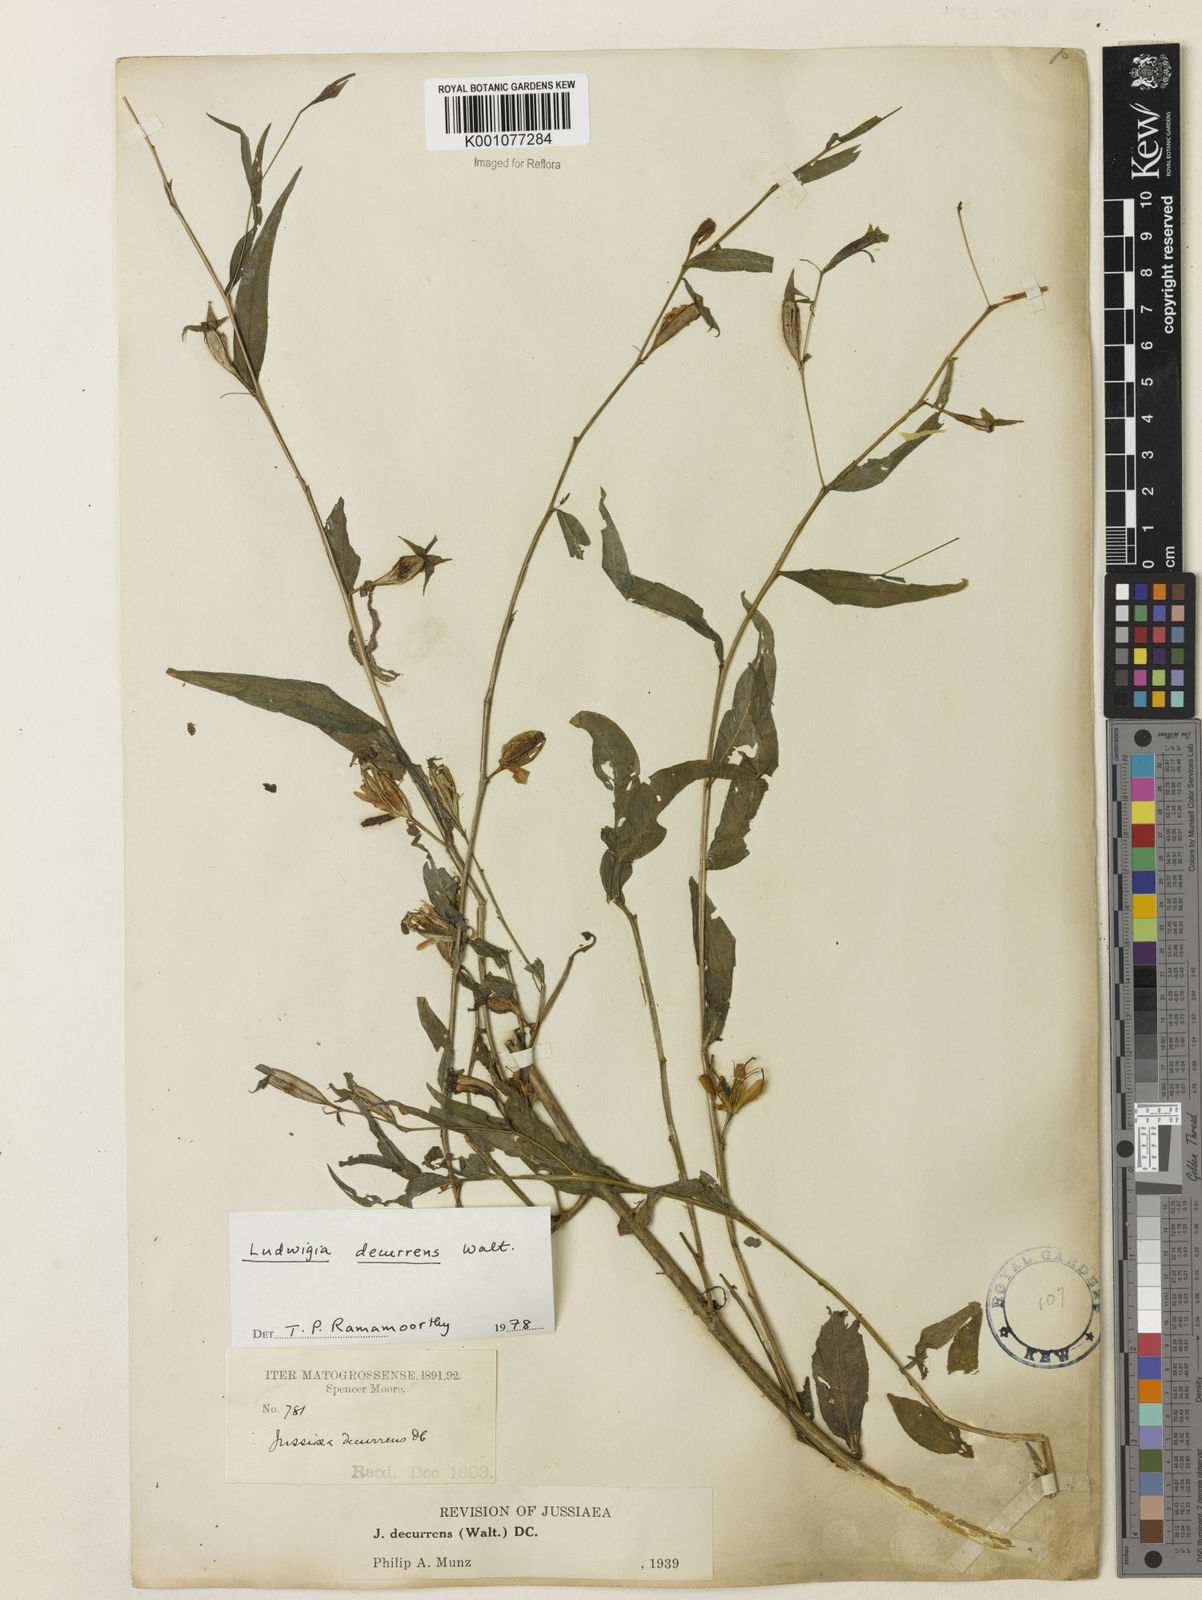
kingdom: Plantae
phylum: Tracheophyta
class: Magnoliopsida
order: Myrtales
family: Onagraceae
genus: Ludwigia
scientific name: Ludwigia decurrens
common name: Winged water-primrose
